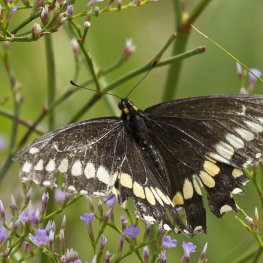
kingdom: Animalia
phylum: Arthropoda
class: Insecta
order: Lepidoptera
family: Papilionidae
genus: Papilio
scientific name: Papilio brevicauda
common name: Short-tailed Swallowtail
